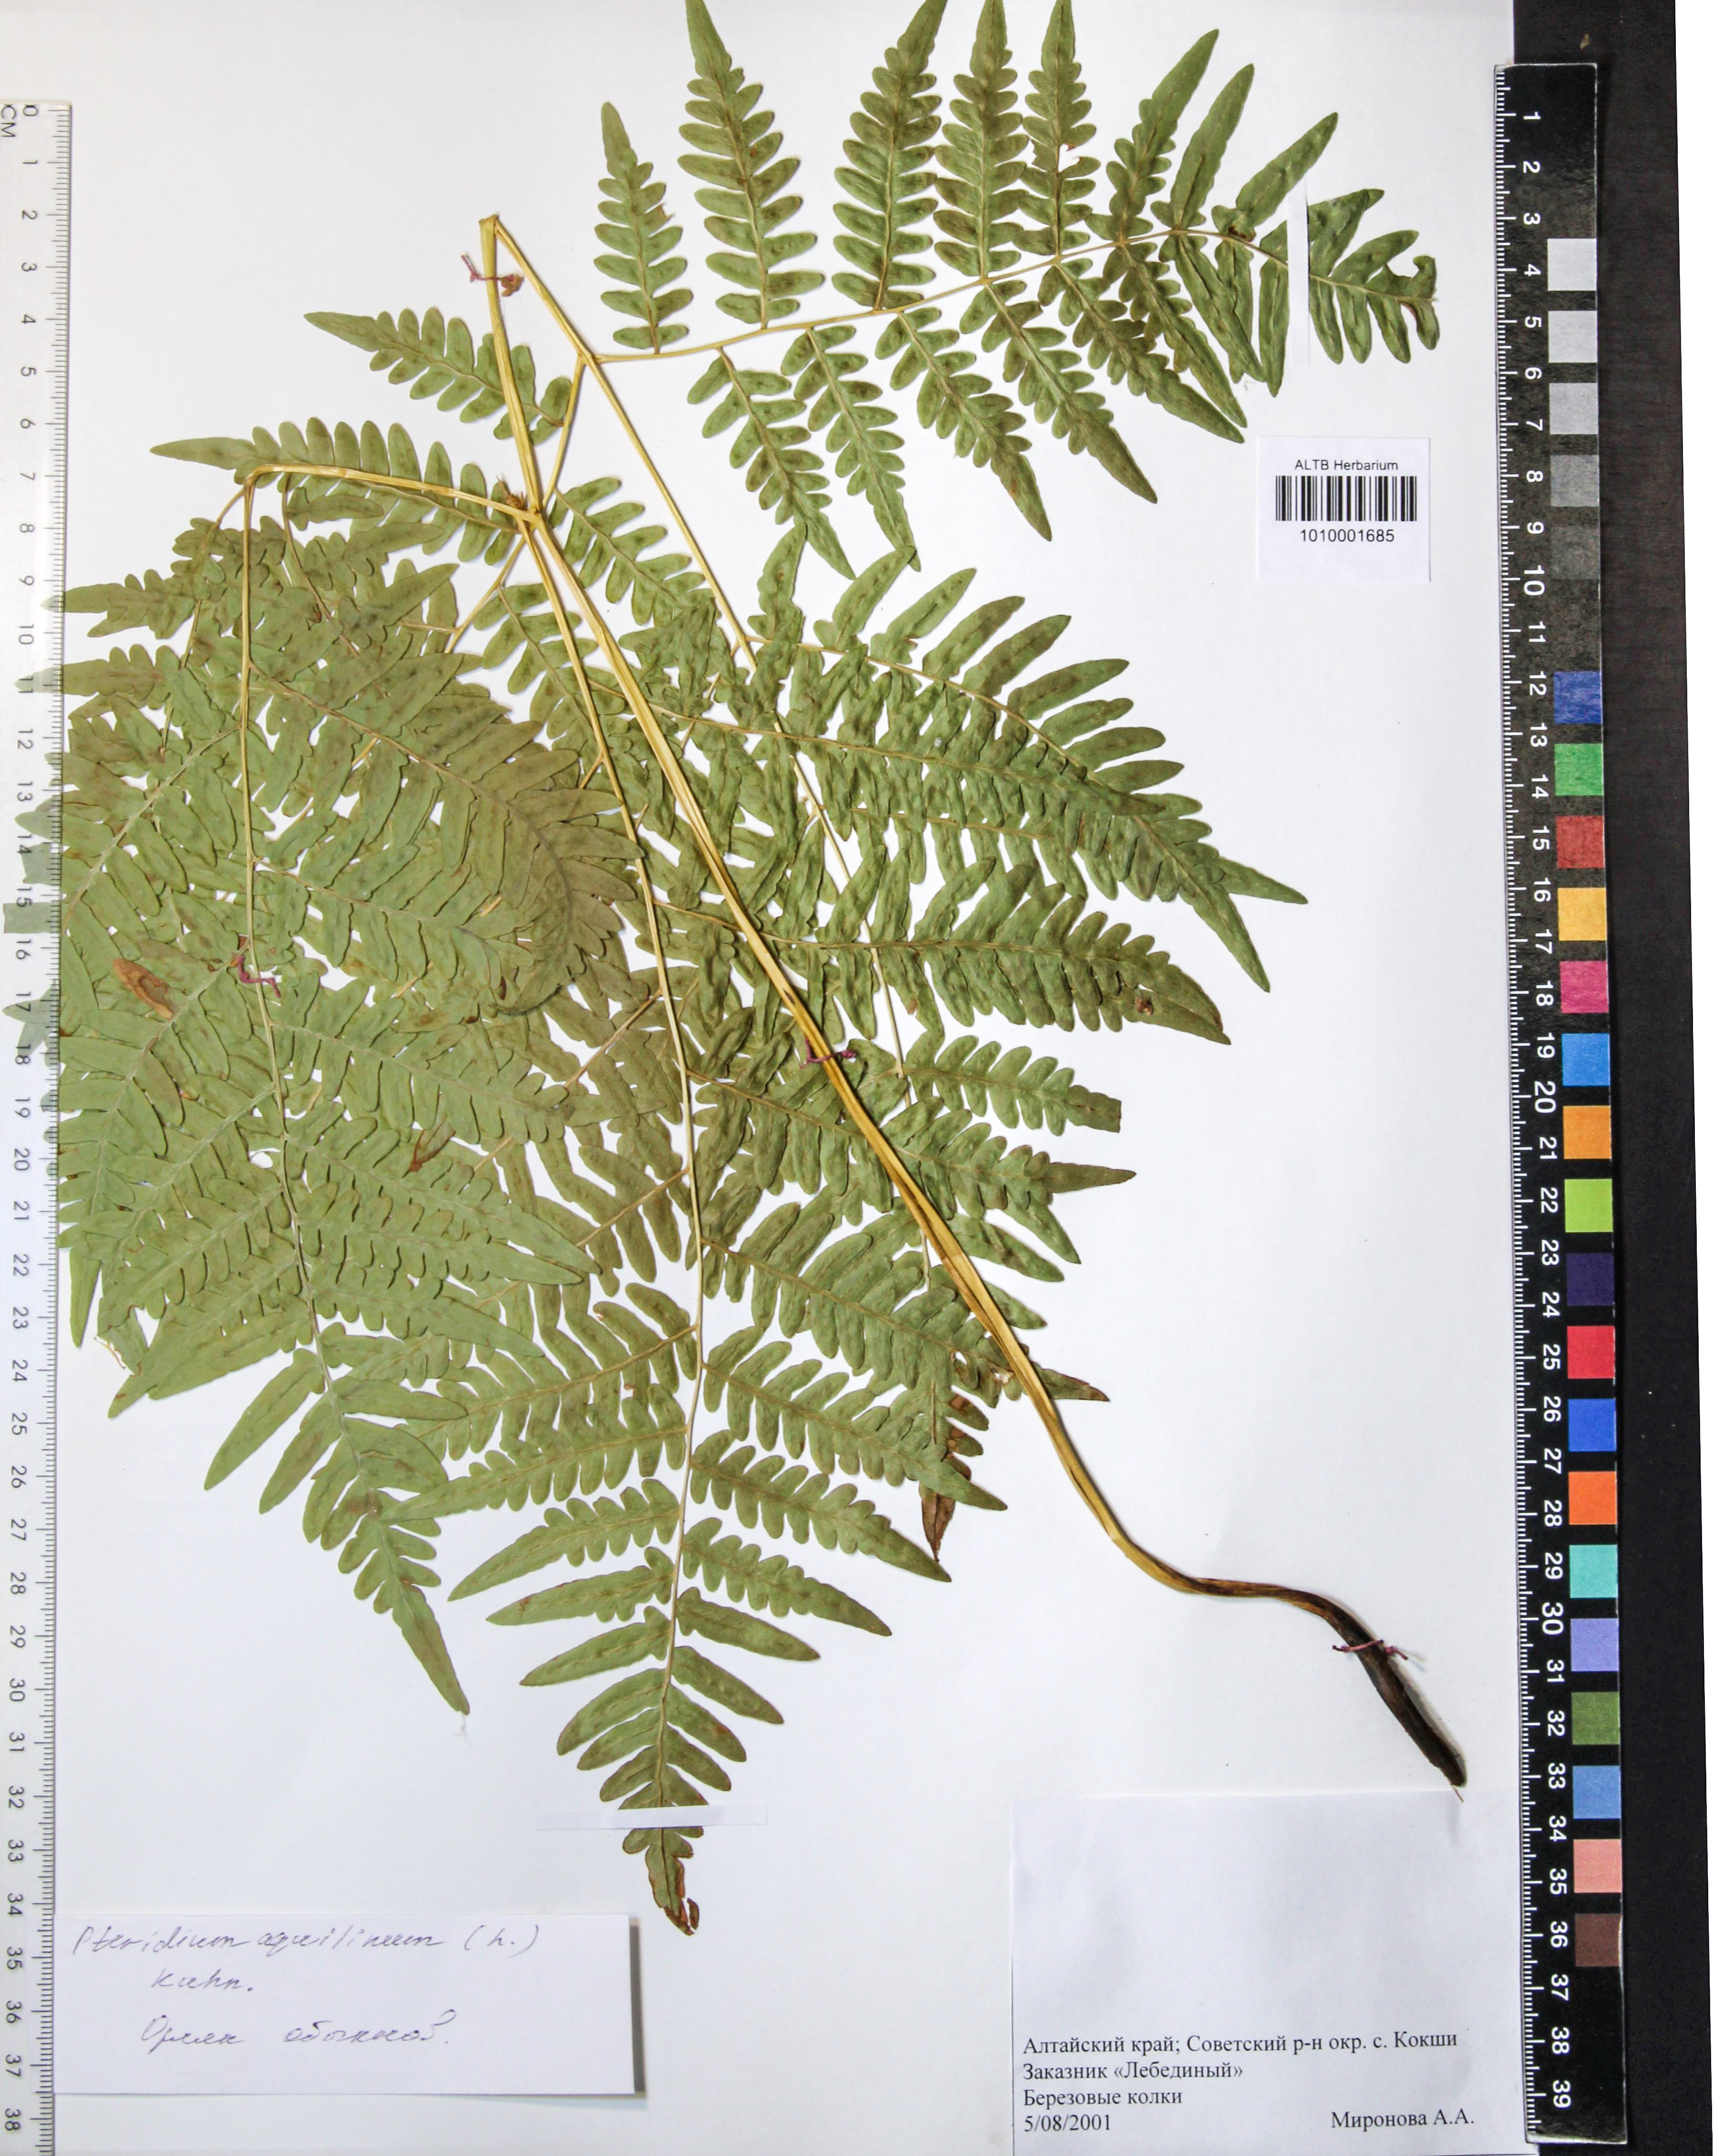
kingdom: Plantae
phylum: Tracheophyta
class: Polypodiopsida
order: Polypodiales
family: Dennstaedtiaceae
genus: Pteridium
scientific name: Pteridium aquilinum
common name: Bracken
